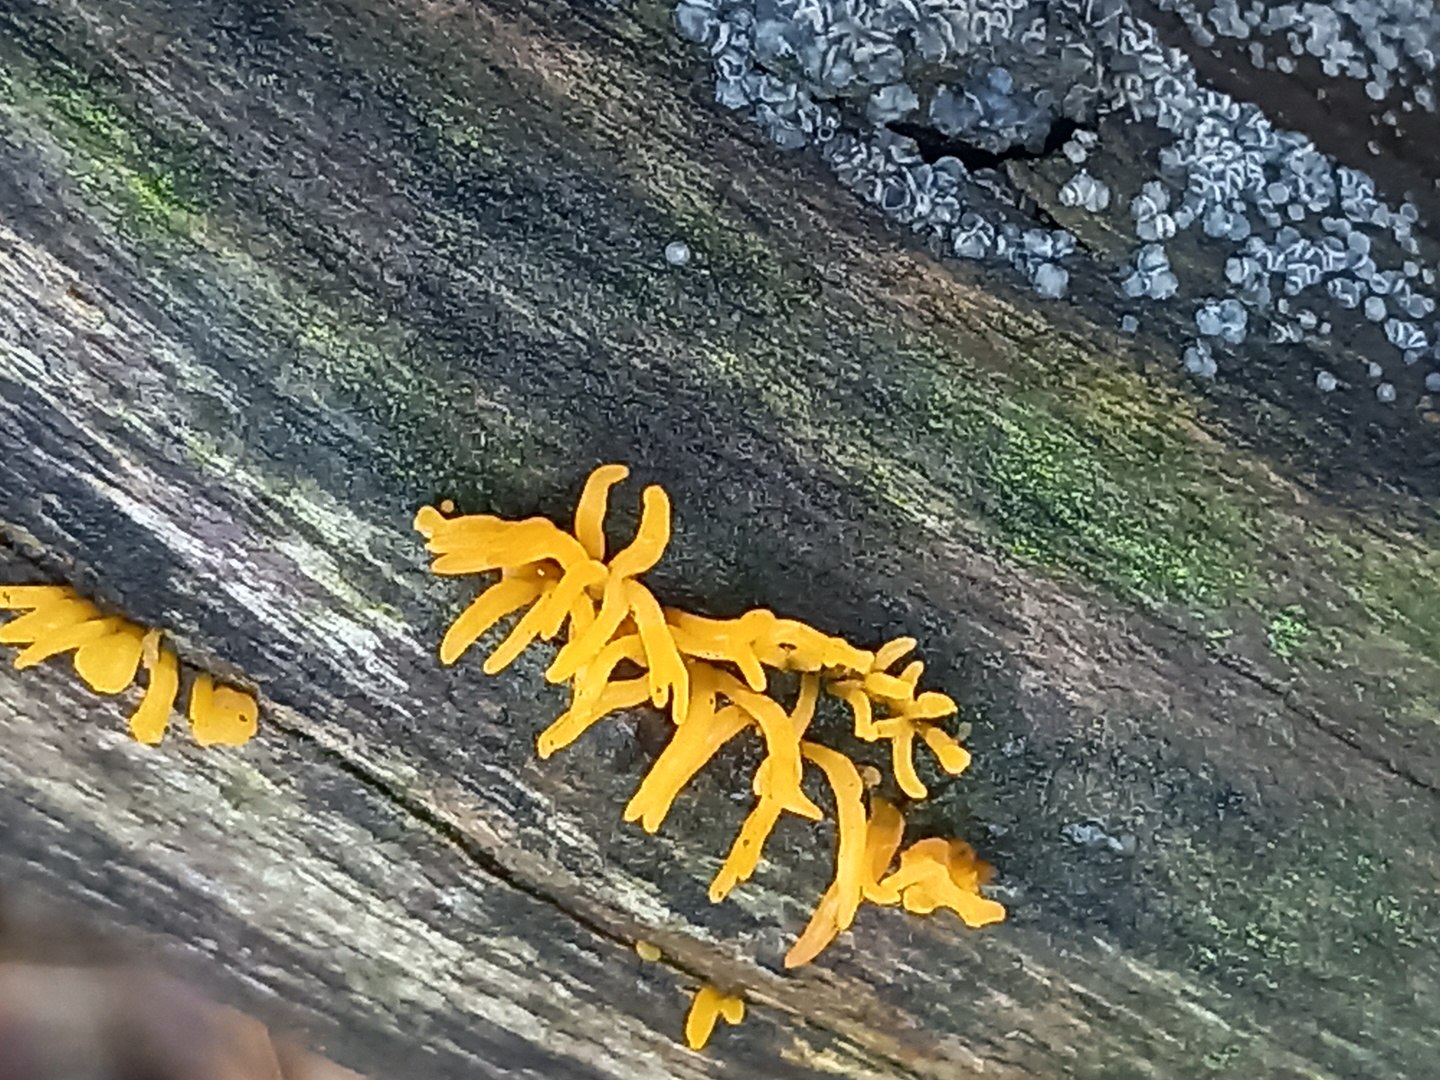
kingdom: Fungi
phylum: Basidiomycota
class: Dacrymycetes
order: Dacrymycetales
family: Dacrymycetaceae
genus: Calocera
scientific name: Calocera cornea
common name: liden guldgaffel
